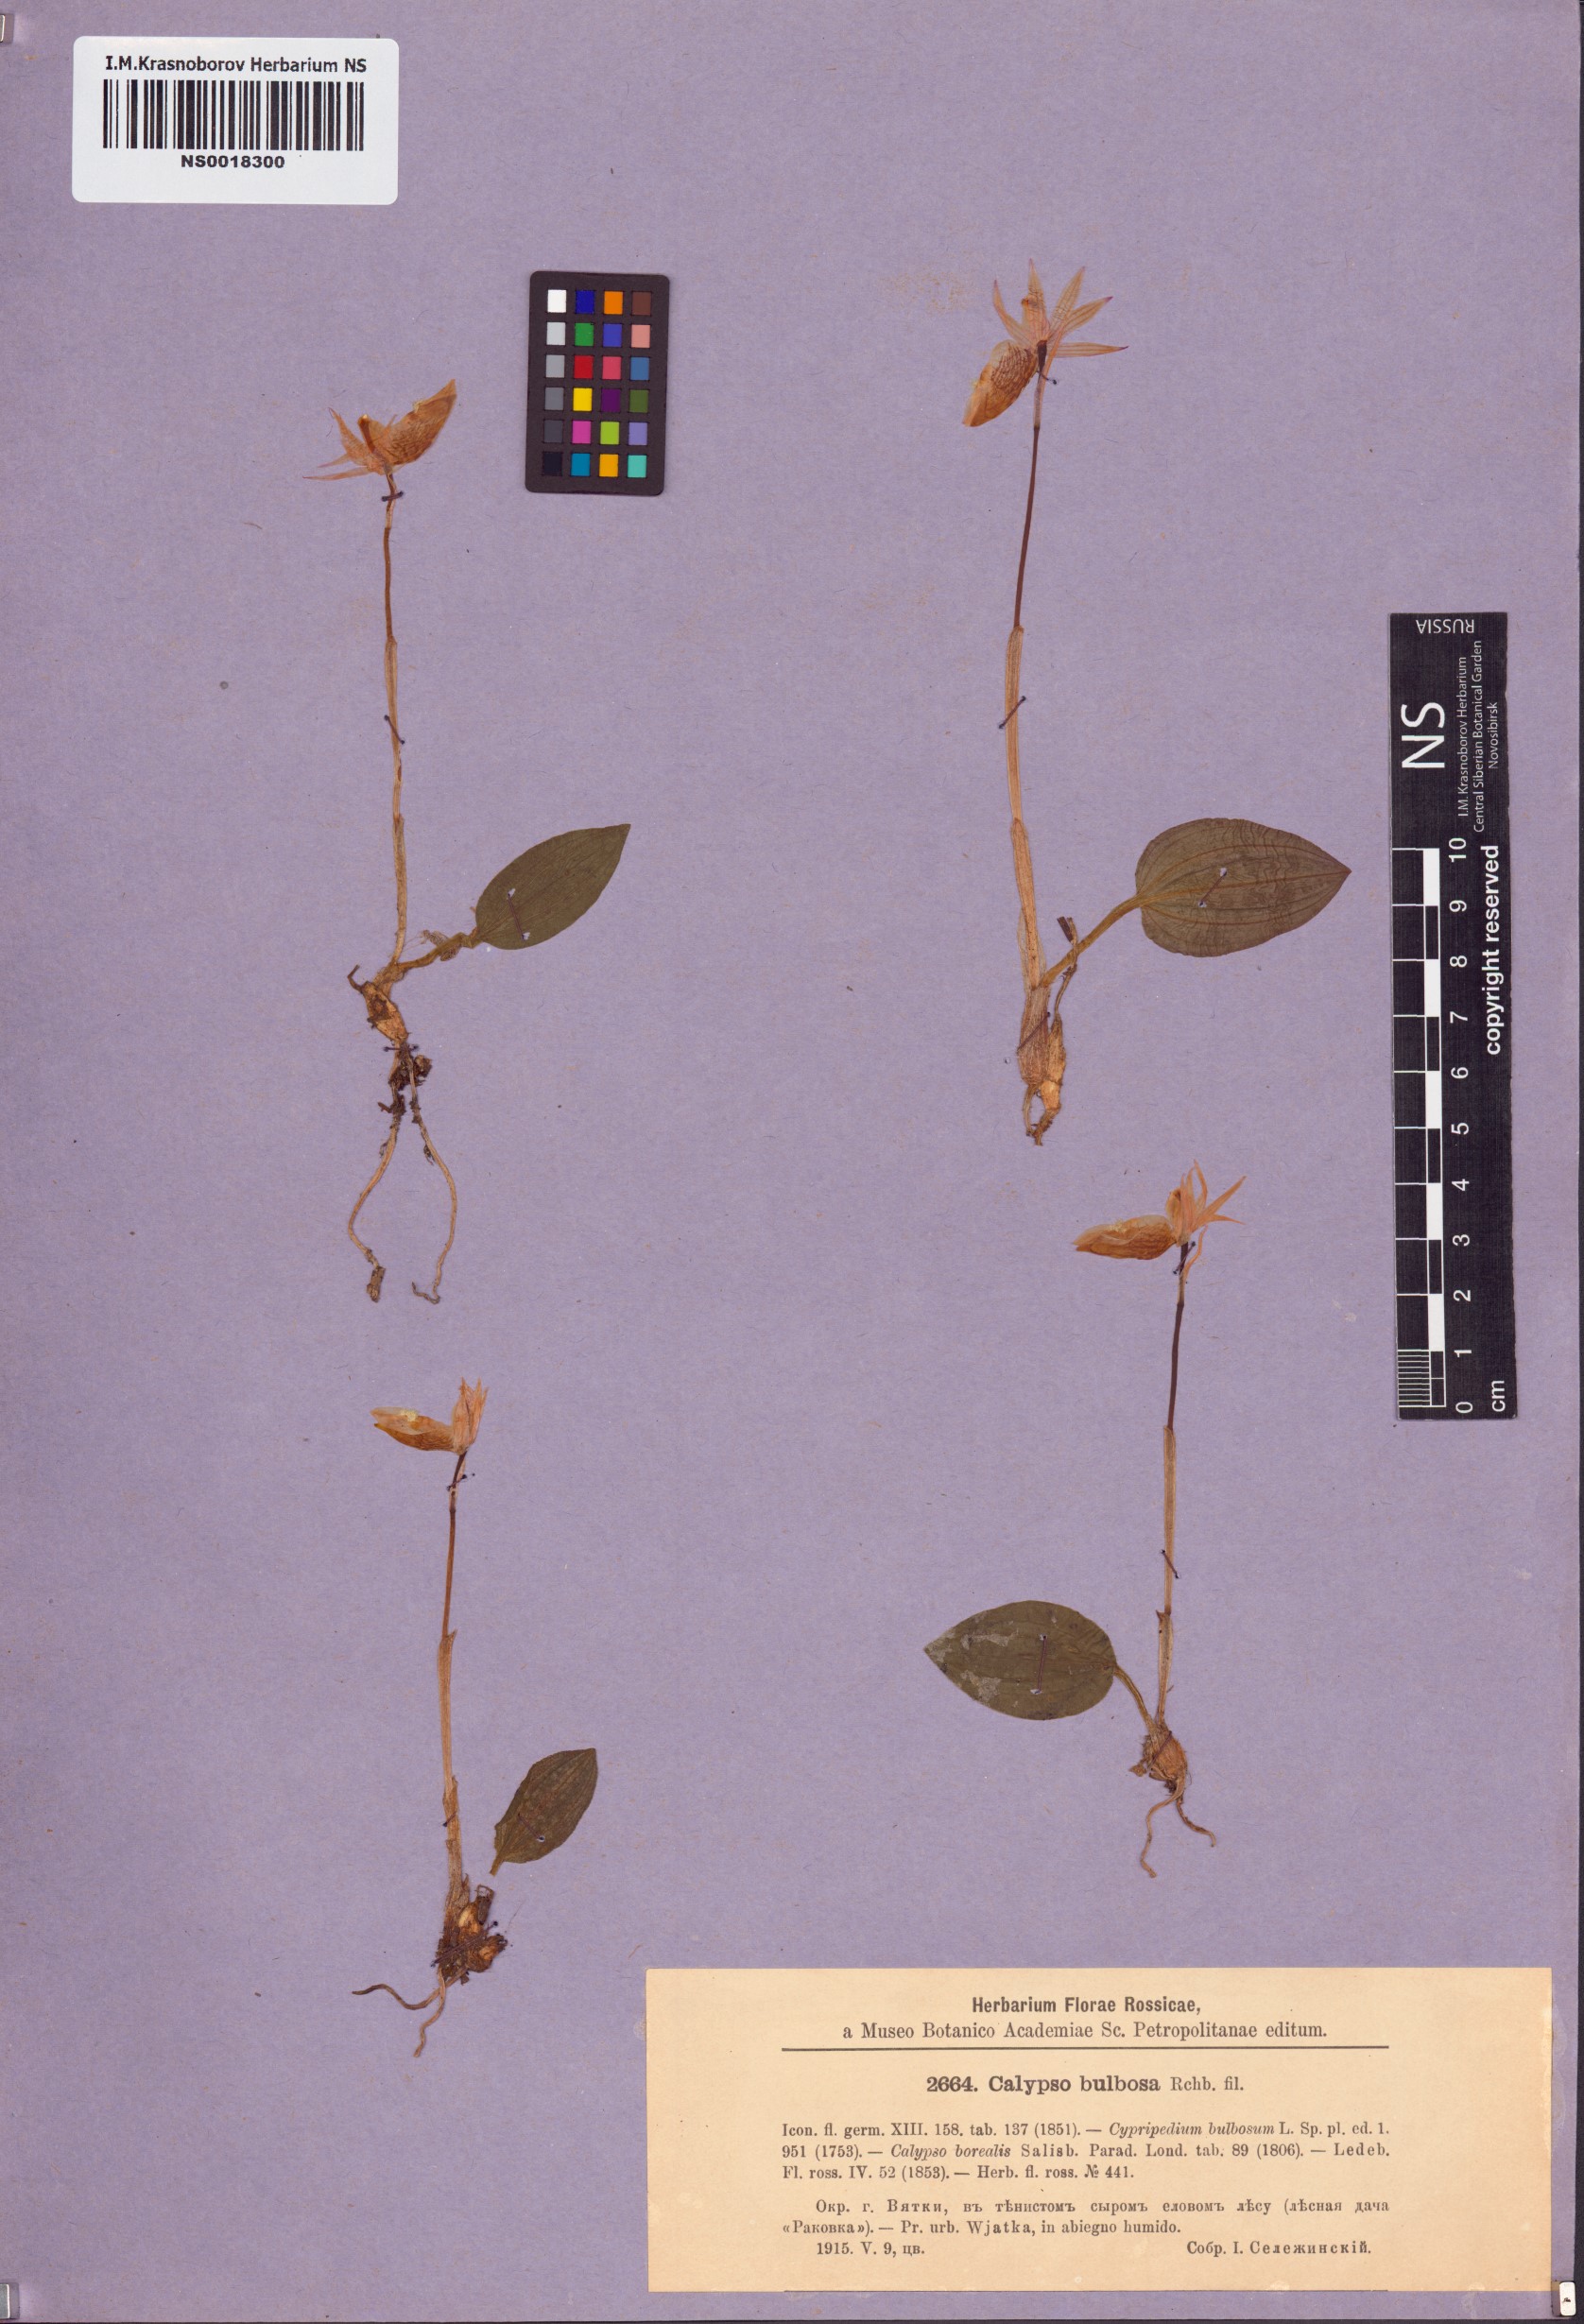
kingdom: Plantae
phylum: Tracheophyta
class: Liliopsida
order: Asparagales
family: Orchidaceae
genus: Calypso
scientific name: Calypso bulbosa
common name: Calypso
